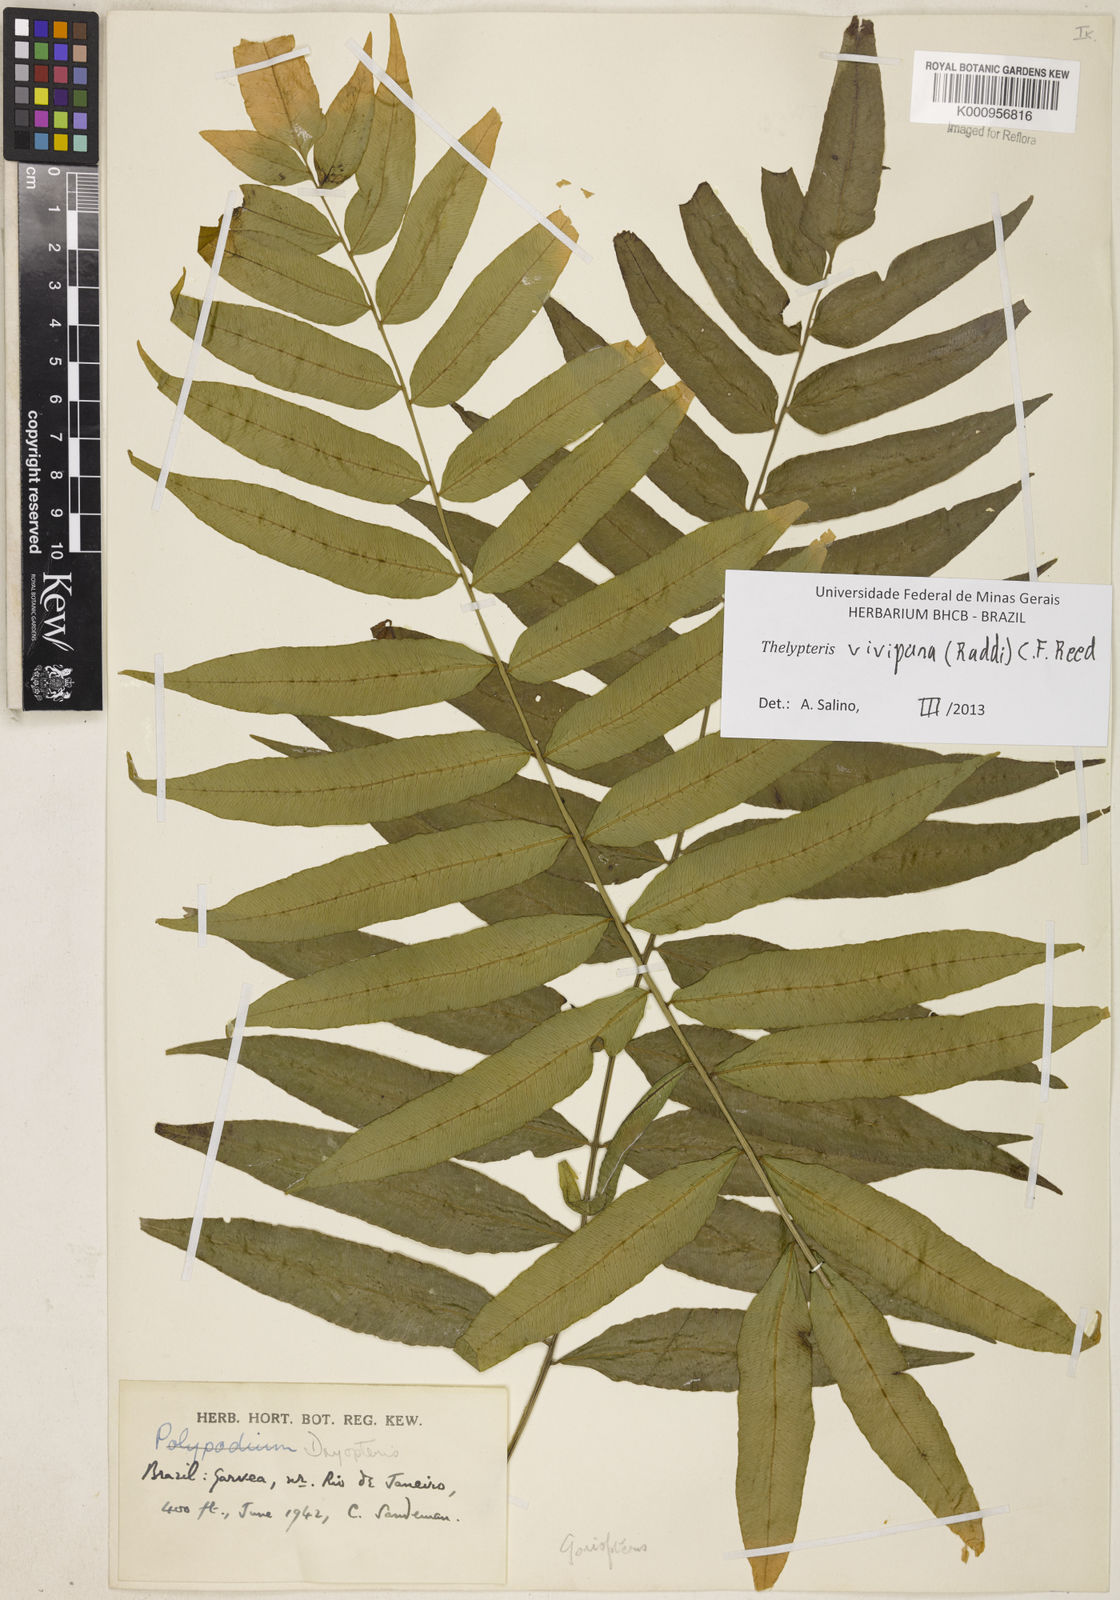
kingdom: Plantae
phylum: Tracheophyta
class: Polypodiopsida
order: Polypodiales
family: Thelypteridaceae
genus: Goniopteris
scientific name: Goniopteris vivipara
